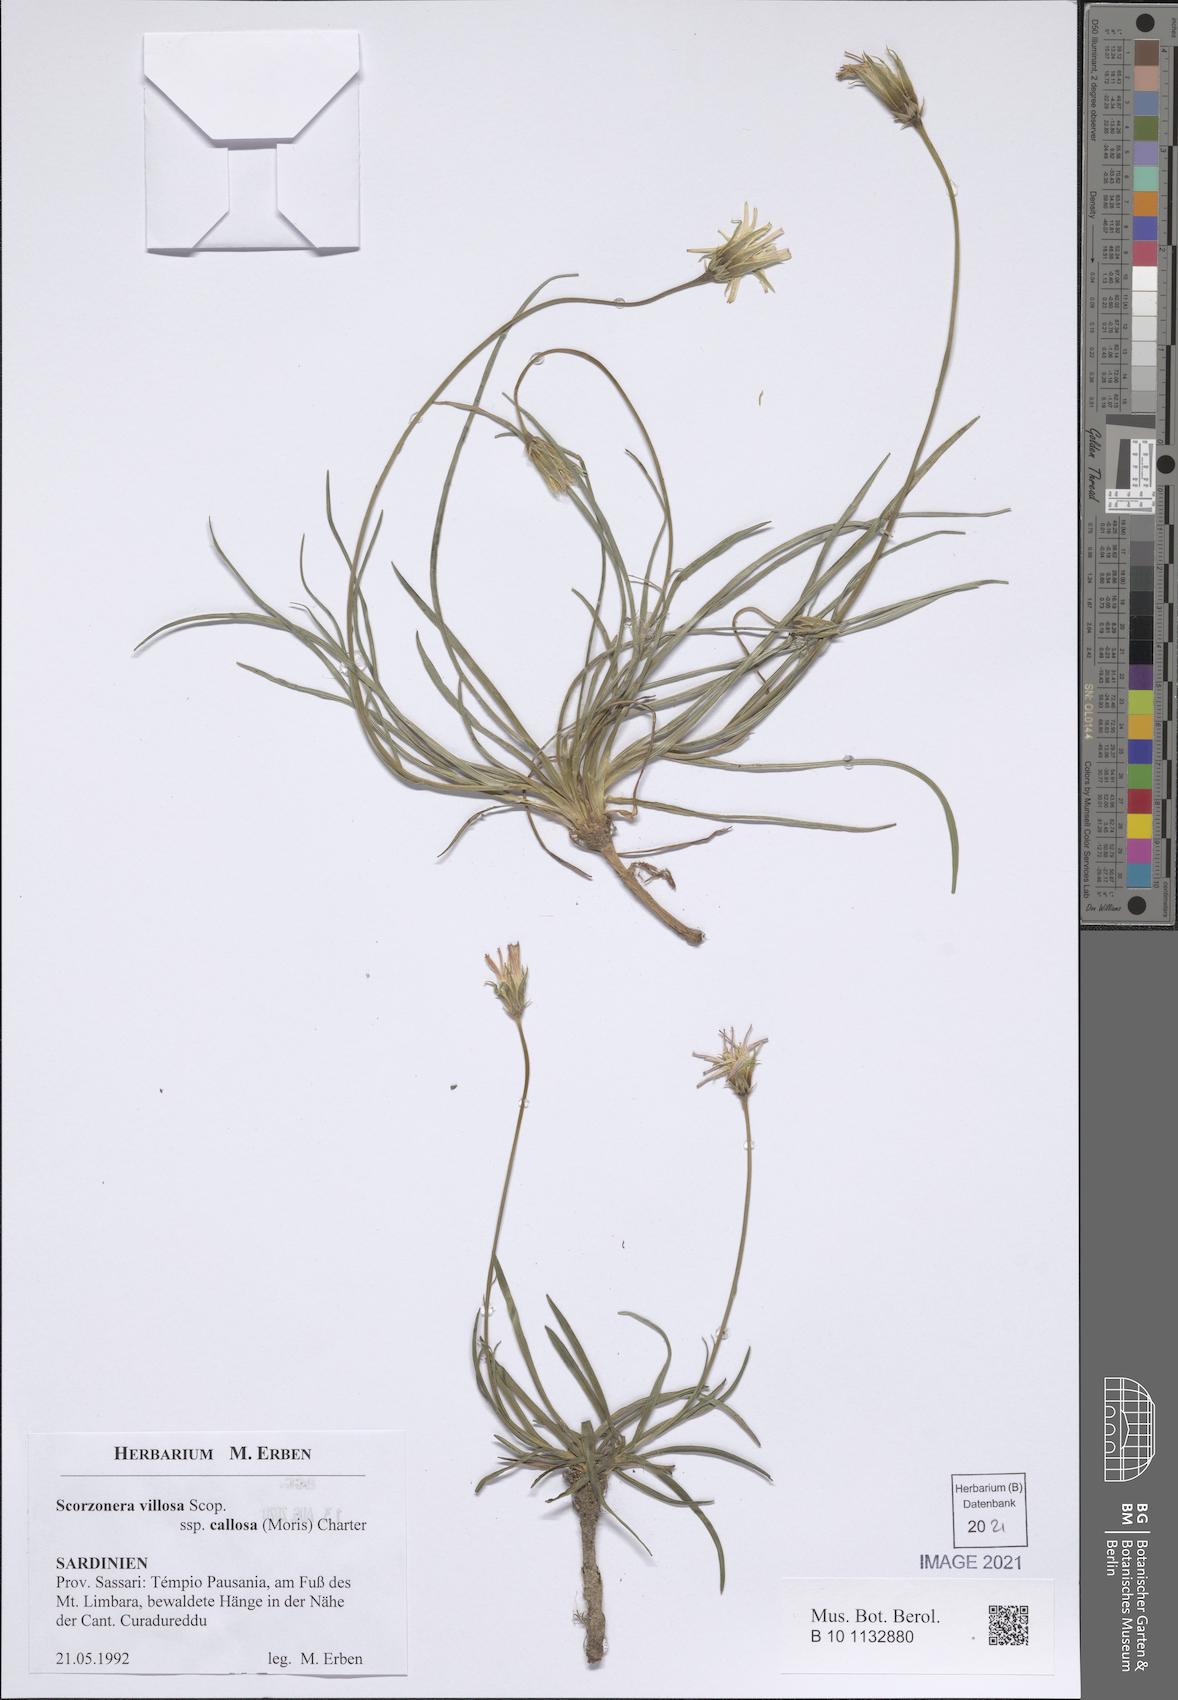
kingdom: Plantae
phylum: Tracheophyta
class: Magnoliopsida
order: Asterales
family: Asteraceae
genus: Gelasia
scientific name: Gelasia callosa
